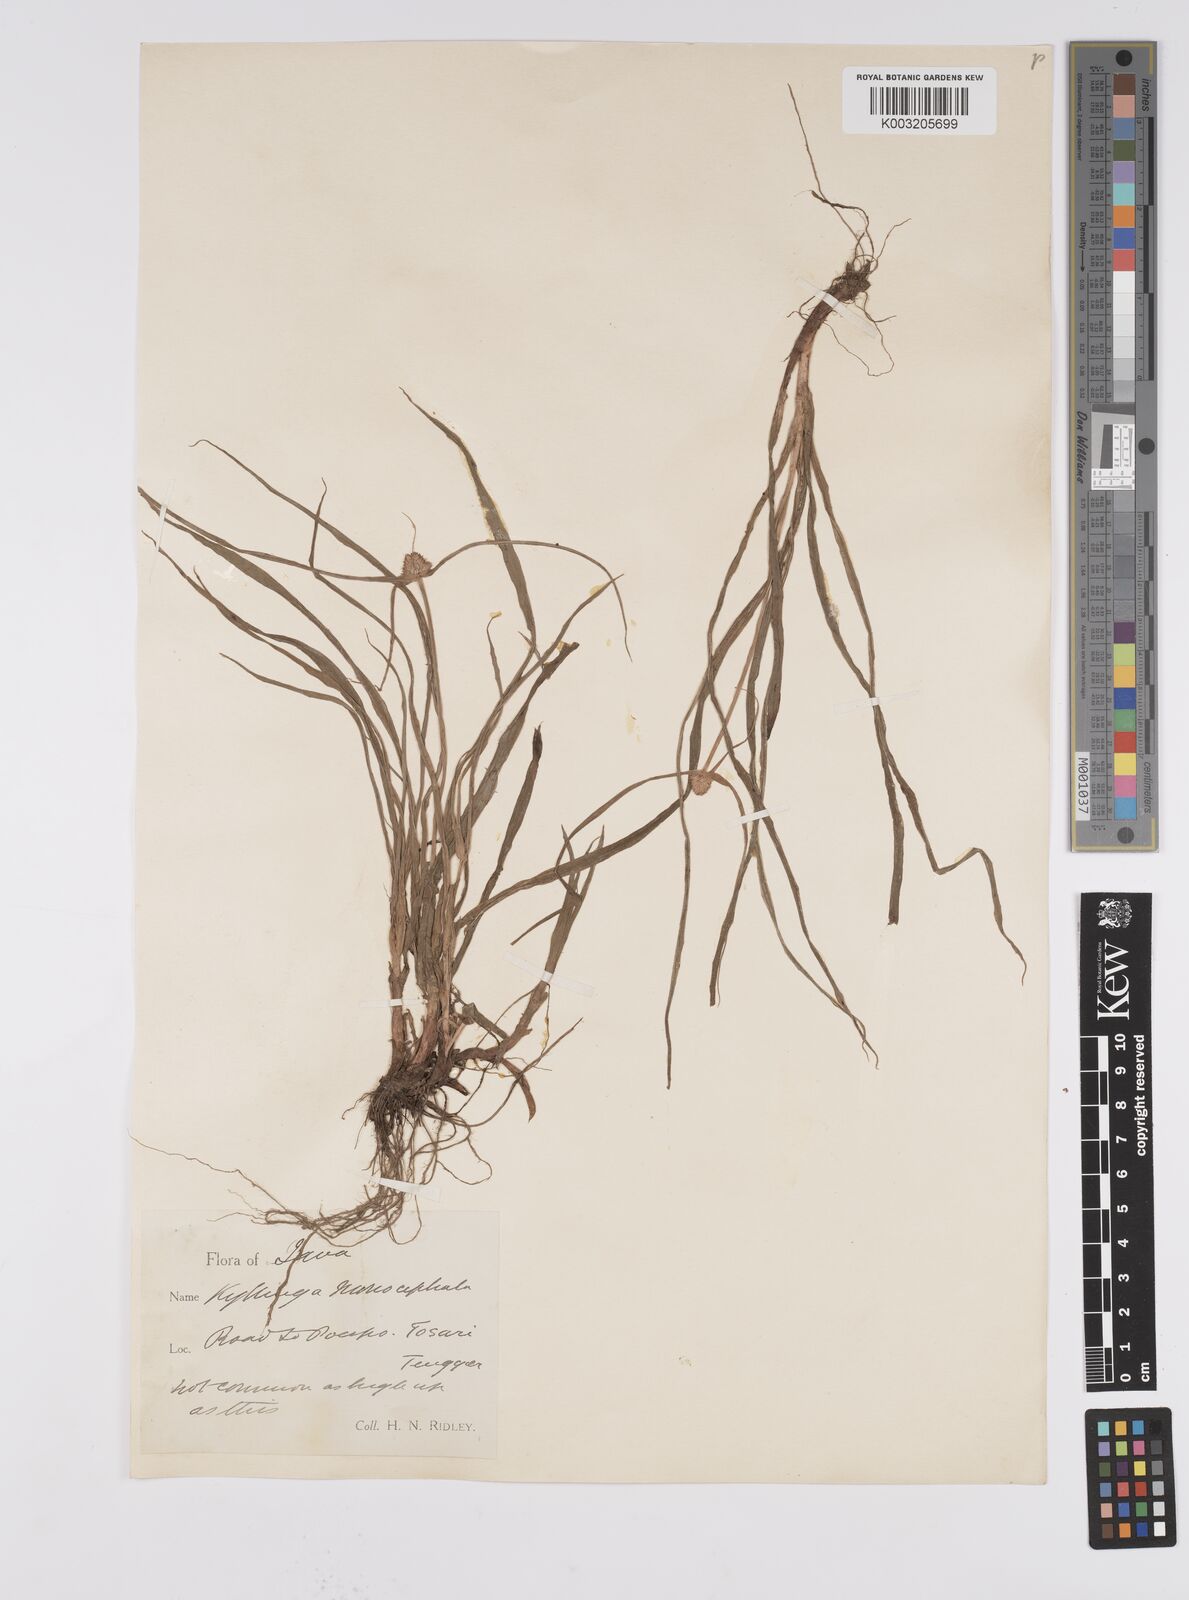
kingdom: Plantae
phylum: Tracheophyta
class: Liliopsida
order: Poales
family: Cyperaceae
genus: Cyperus
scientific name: Cyperus nemoralis
